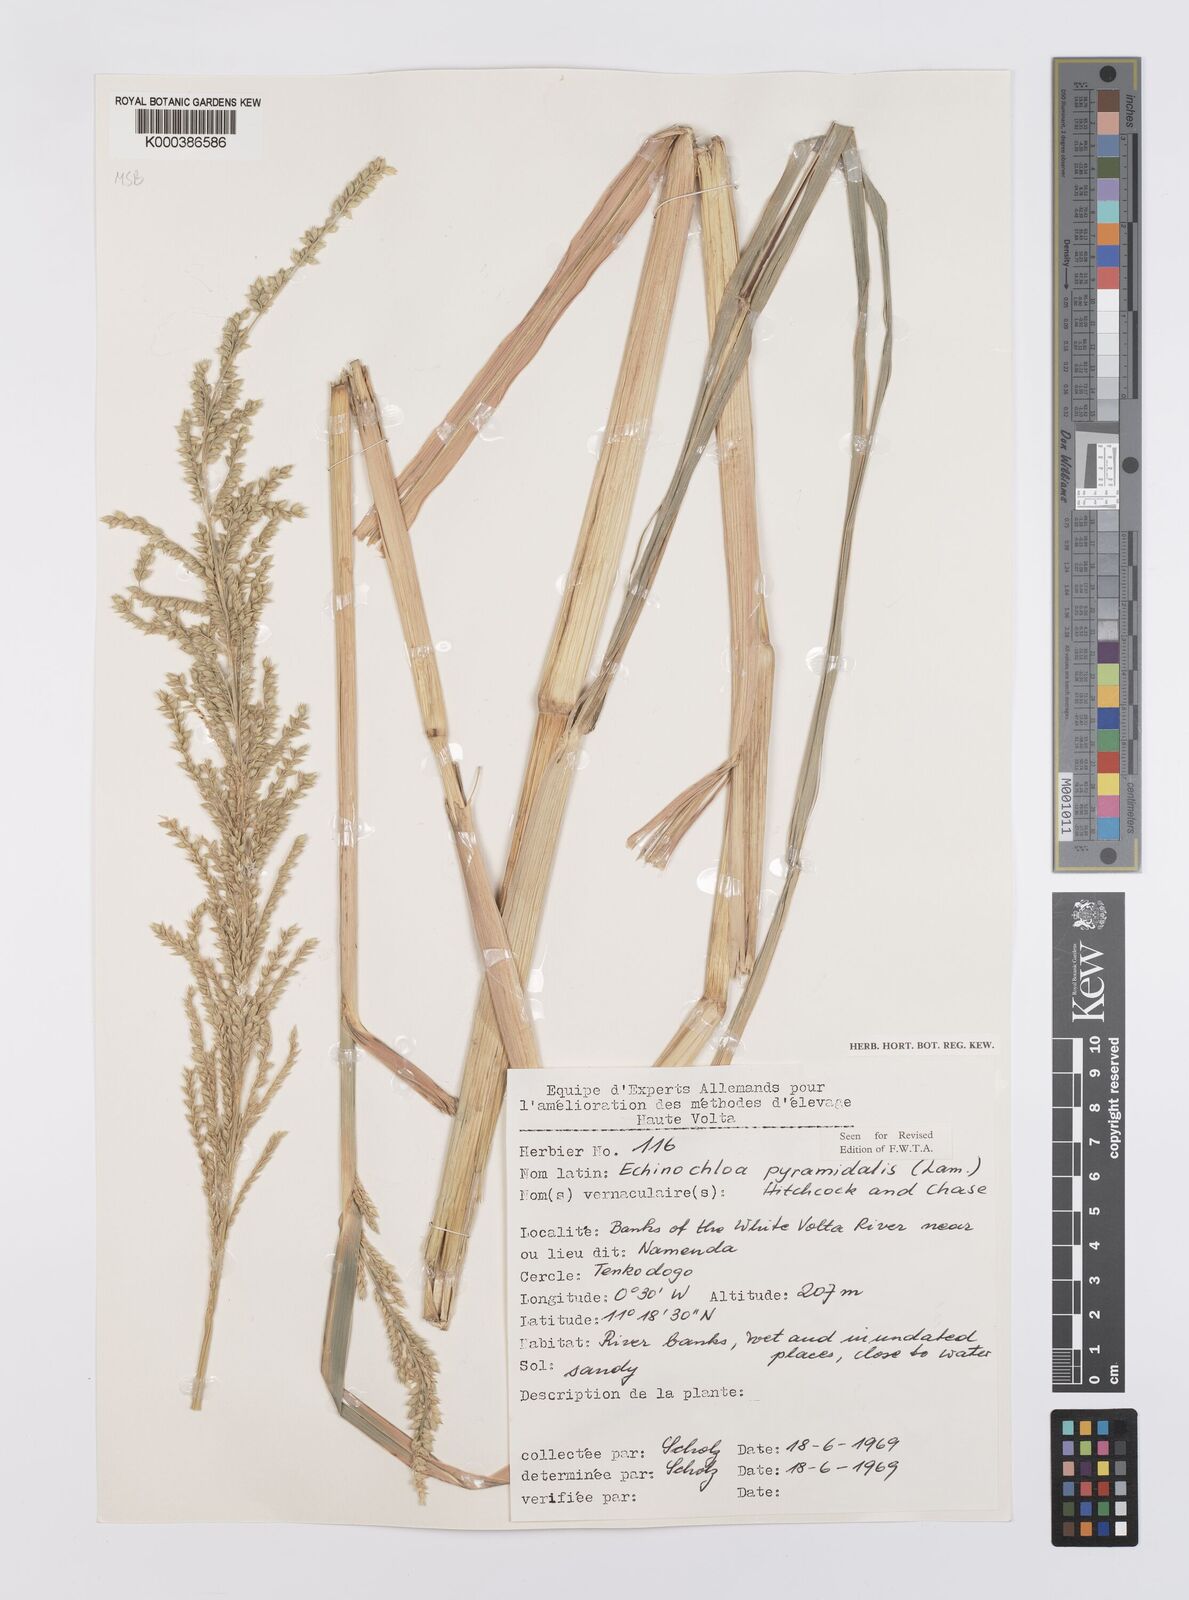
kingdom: Plantae
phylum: Tracheophyta
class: Liliopsida
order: Poales
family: Poaceae
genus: Echinochloa
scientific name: Echinochloa pyramidalis
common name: Antelope grass
